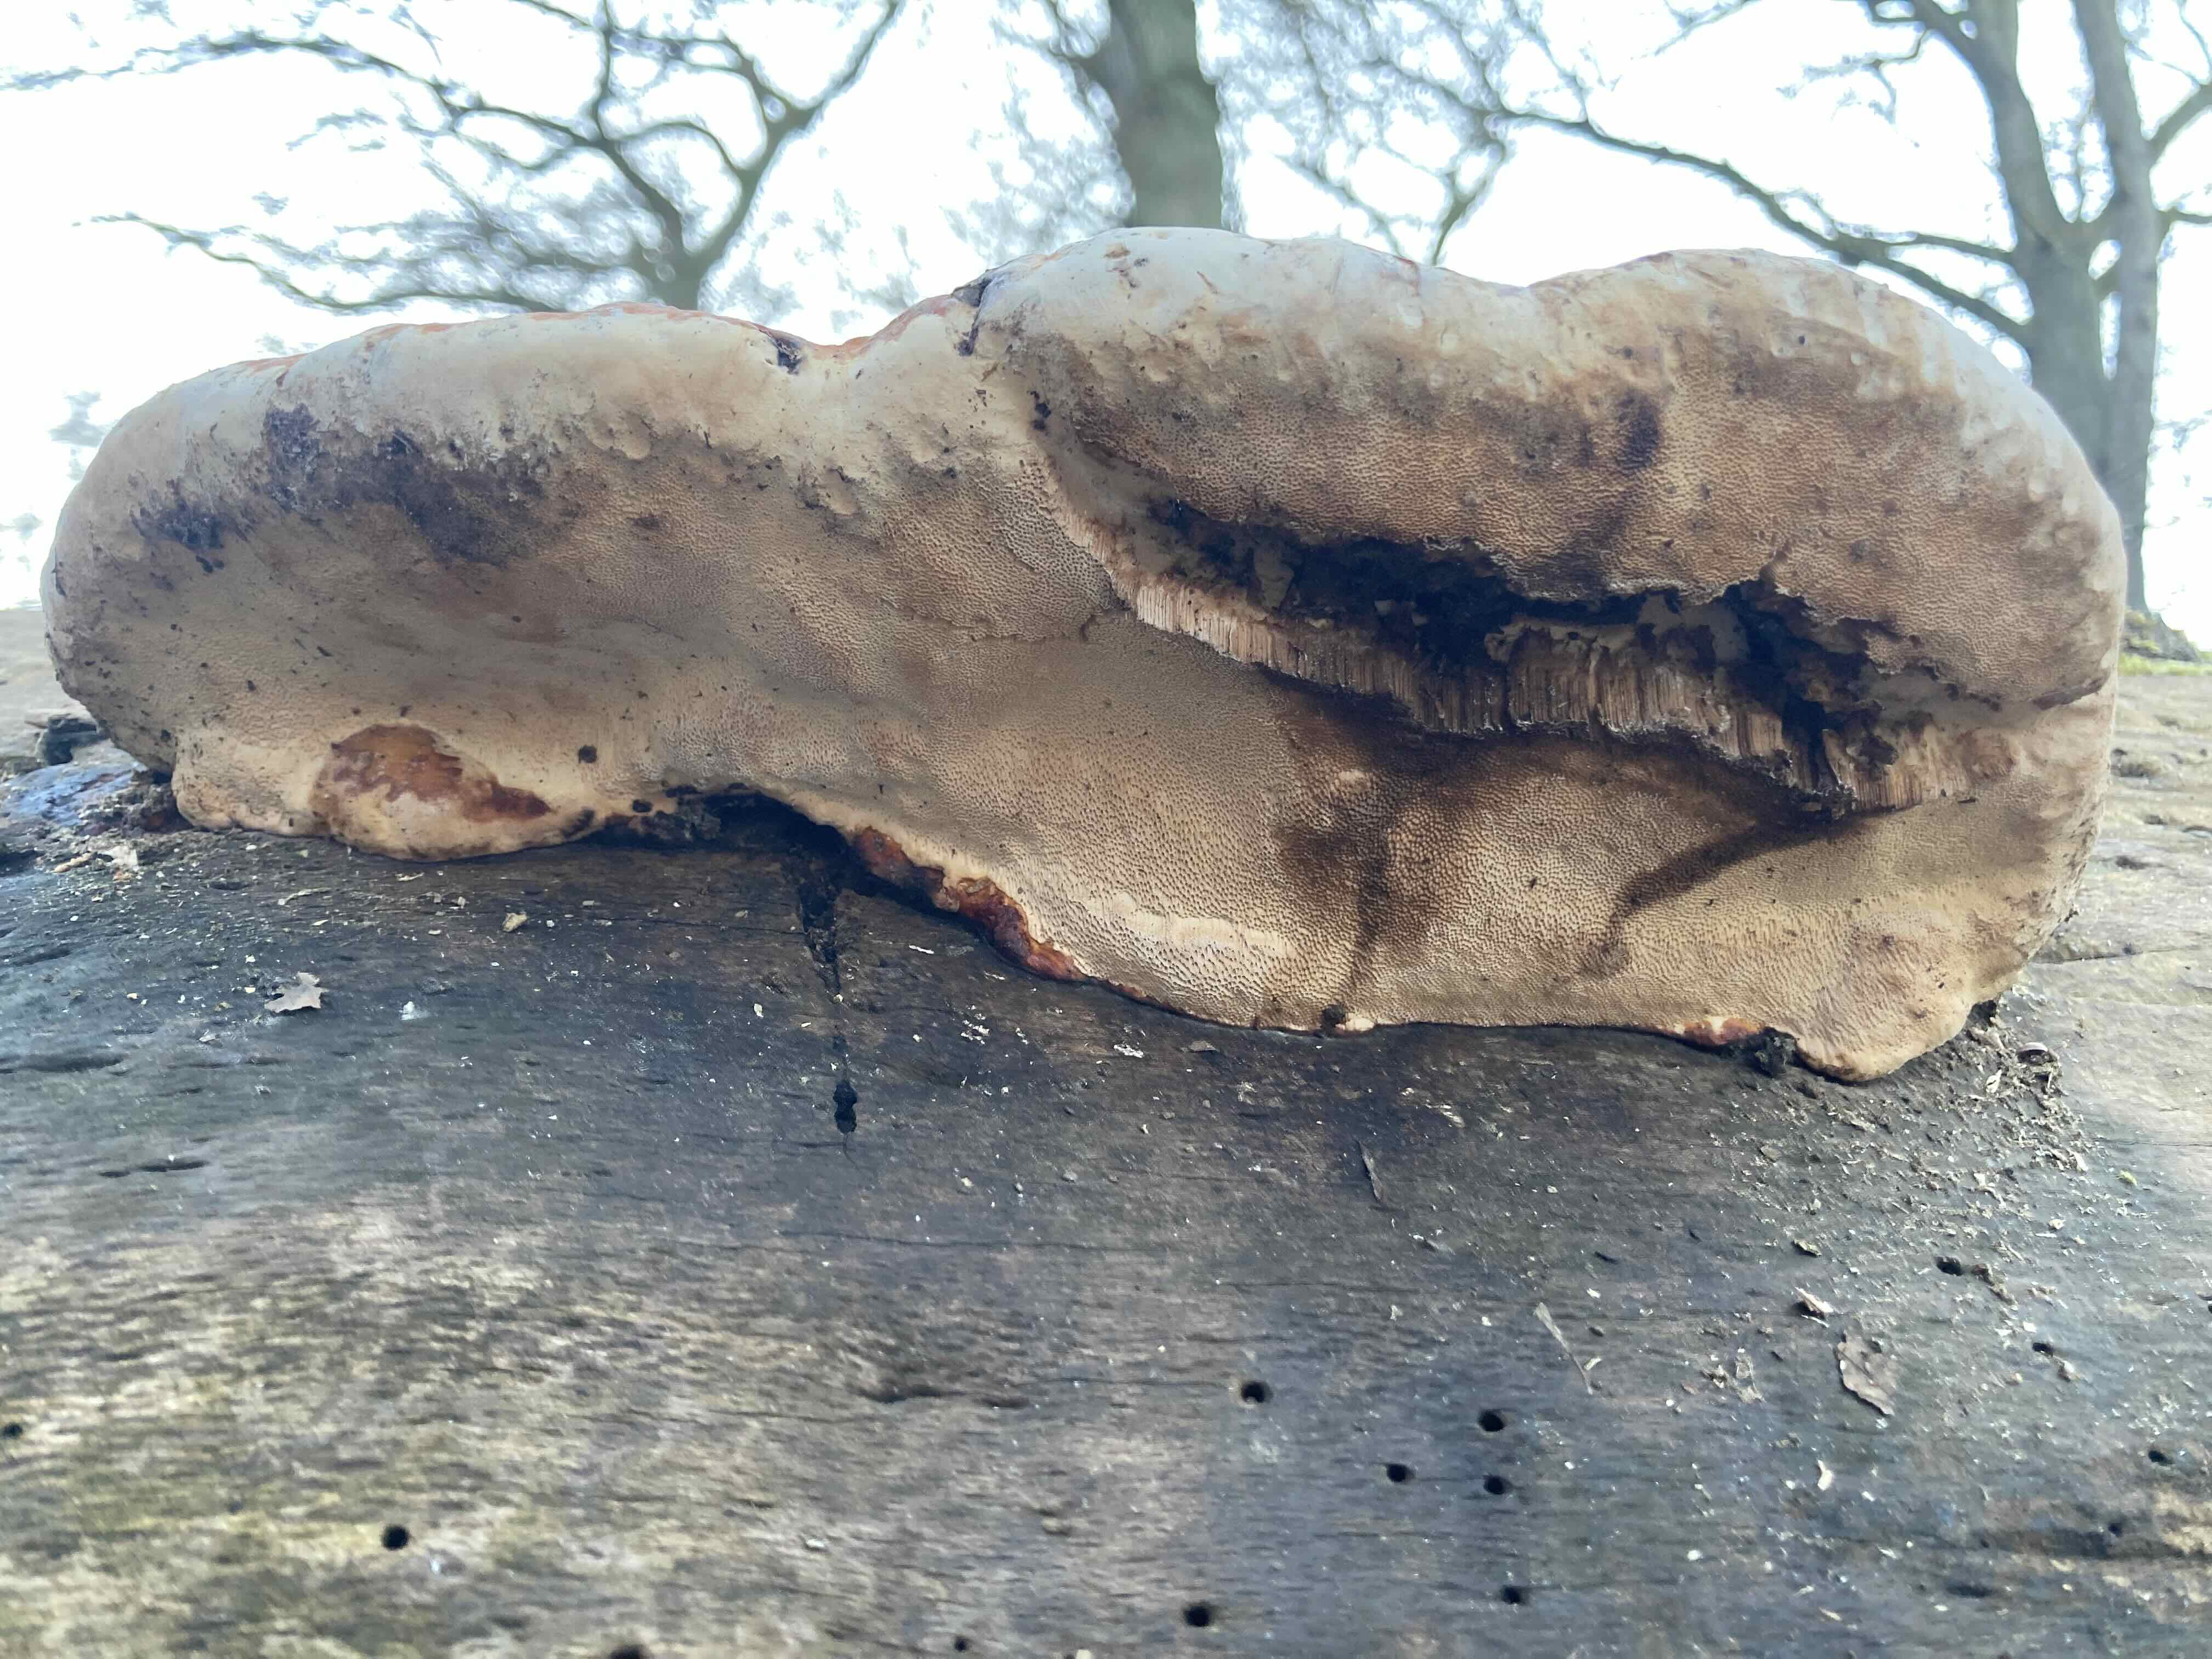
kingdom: Fungi
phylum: Basidiomycota
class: Agaricomycetes
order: Polyporales
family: Fomitopsidaceae
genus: Fomitopsis
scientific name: Fomitopsis pinicola
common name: randbæltet hovporesvamp
